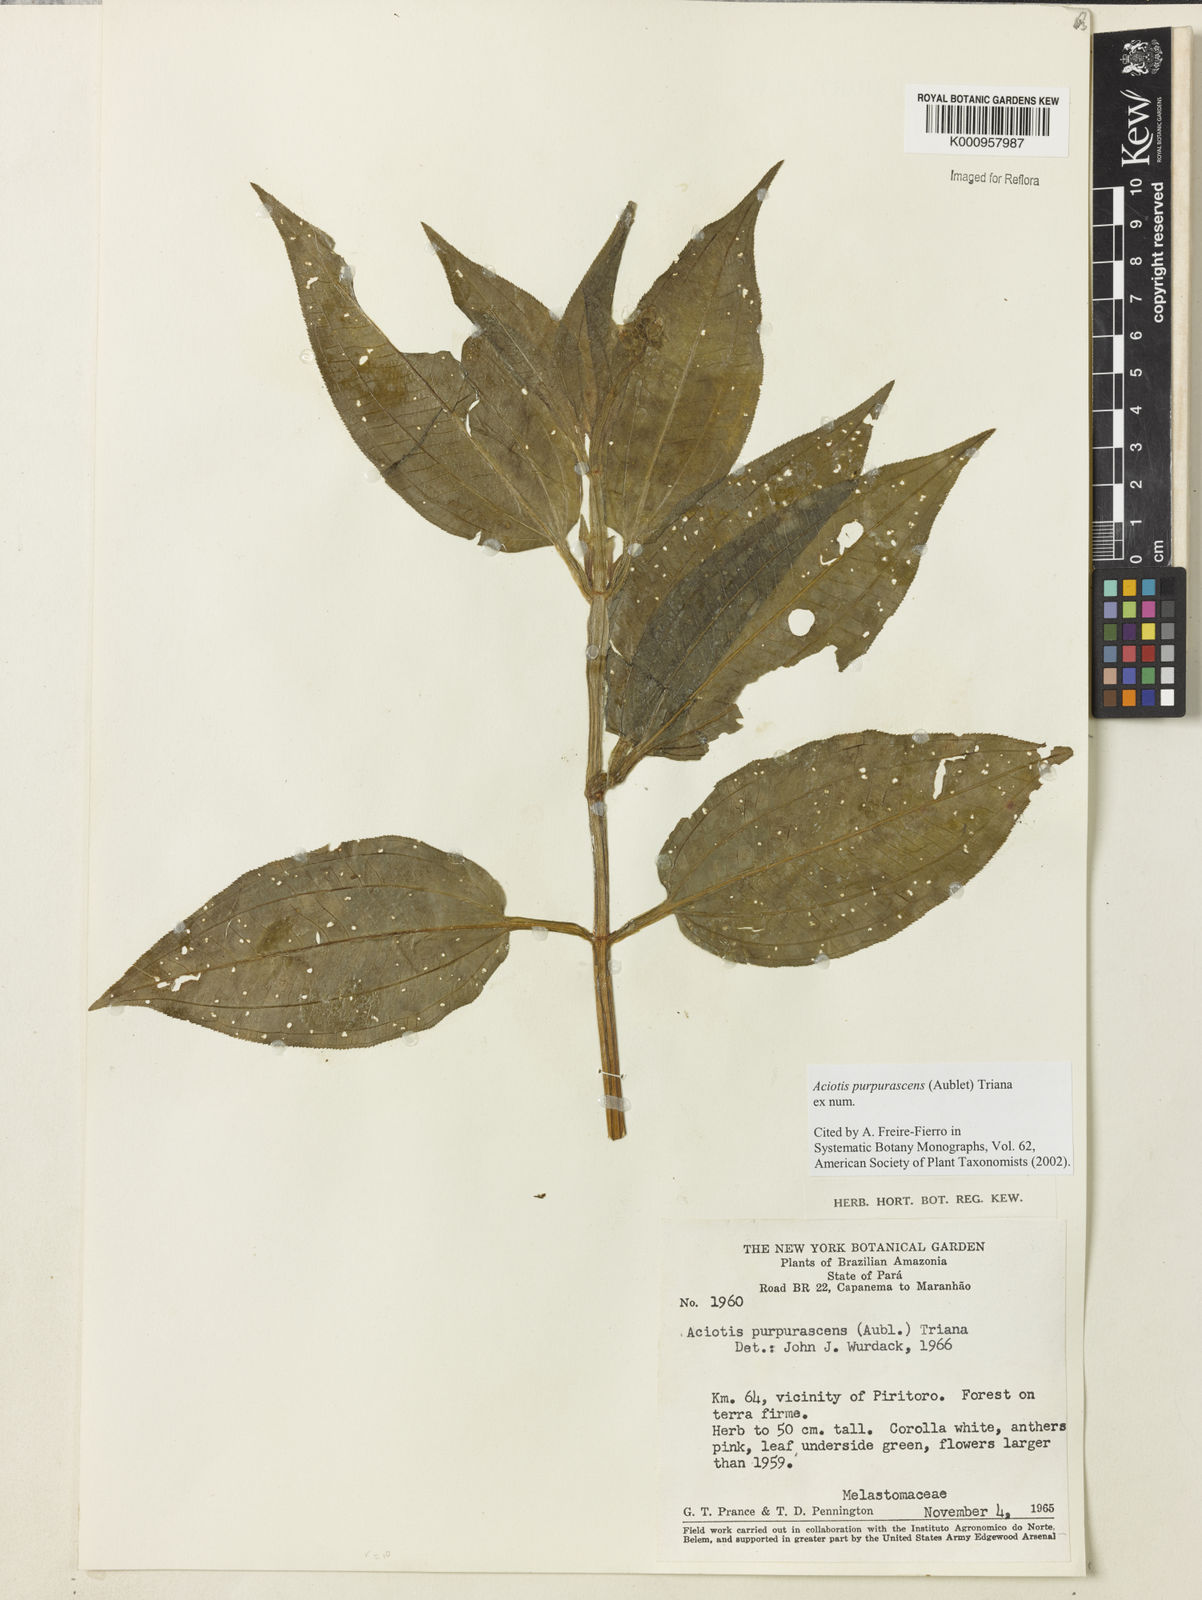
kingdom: Plantae
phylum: Tracheophyta
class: Magnoliopsida
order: Myrtales
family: Melastomataceae
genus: Aciotis
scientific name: Aciotis purpurascens
